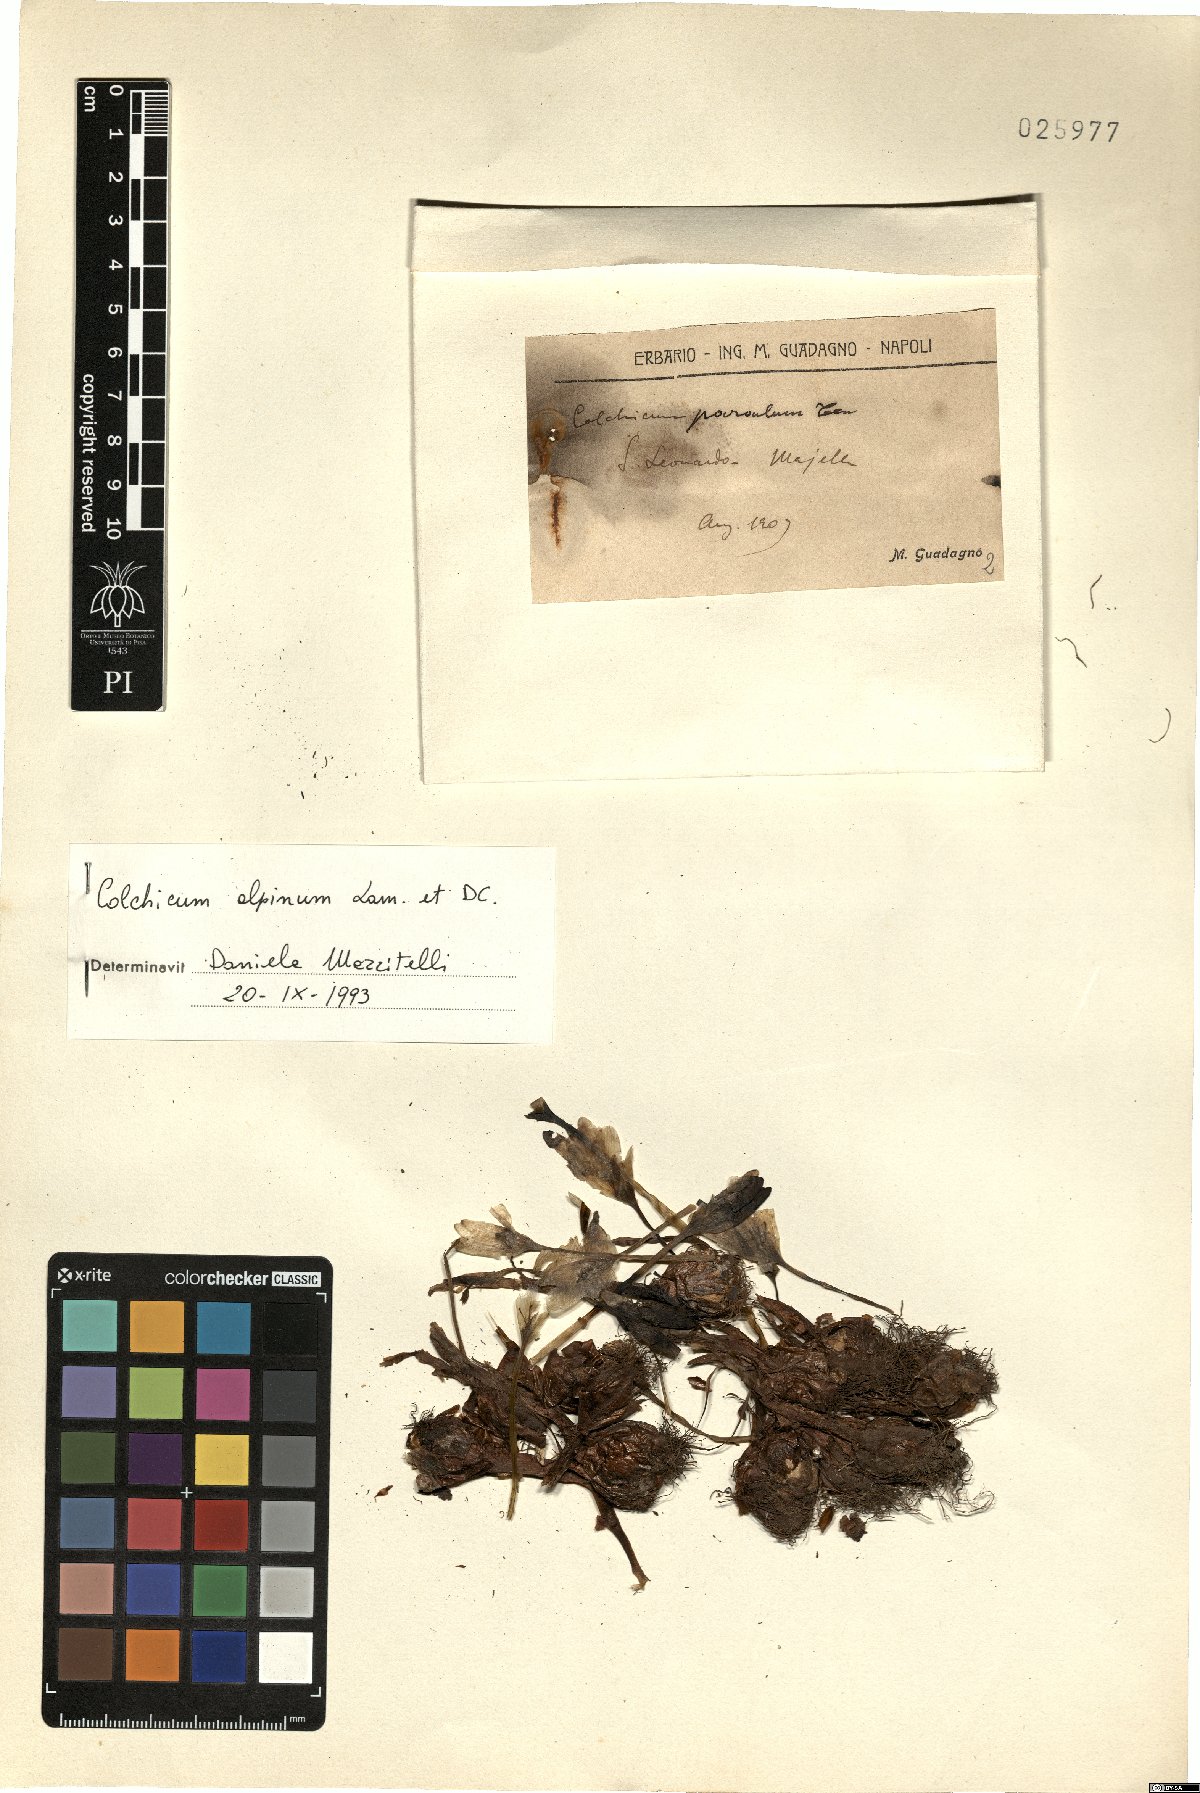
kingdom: Plantae
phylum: Tracheophyta
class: Liliopsida
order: Liliales
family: Colchicaceae
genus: Colchicum
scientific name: Colchicum alpinum
